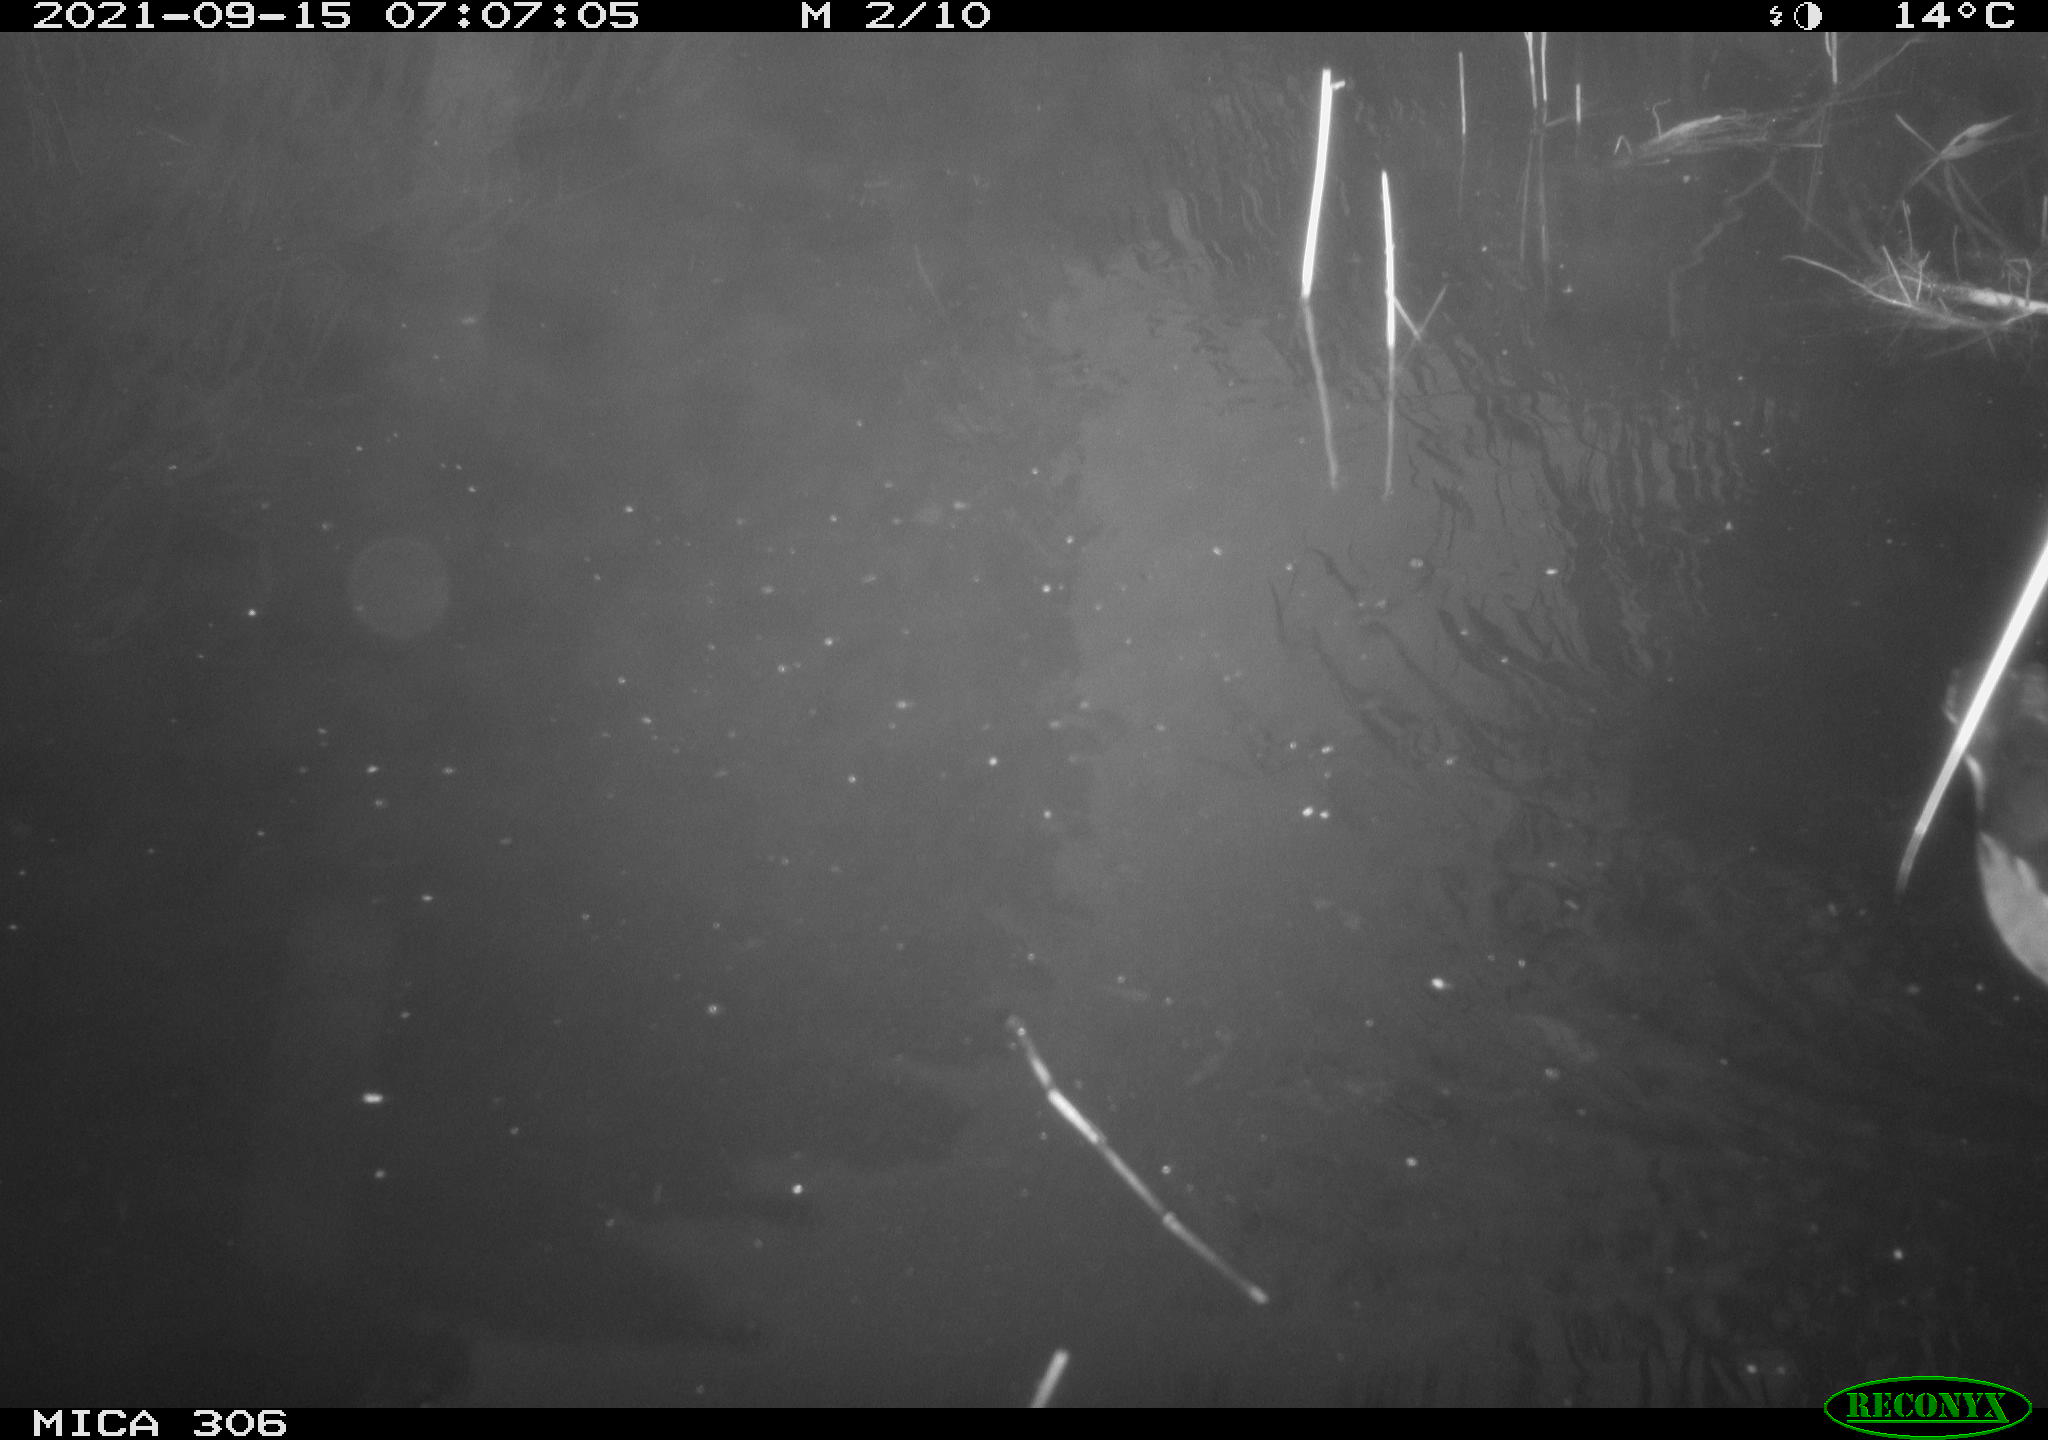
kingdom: Animalia
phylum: Chordata
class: Aves
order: Gruiformes
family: Rallidae
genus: Gallinula
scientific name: Gallinula chloropus
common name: Common moorhen
